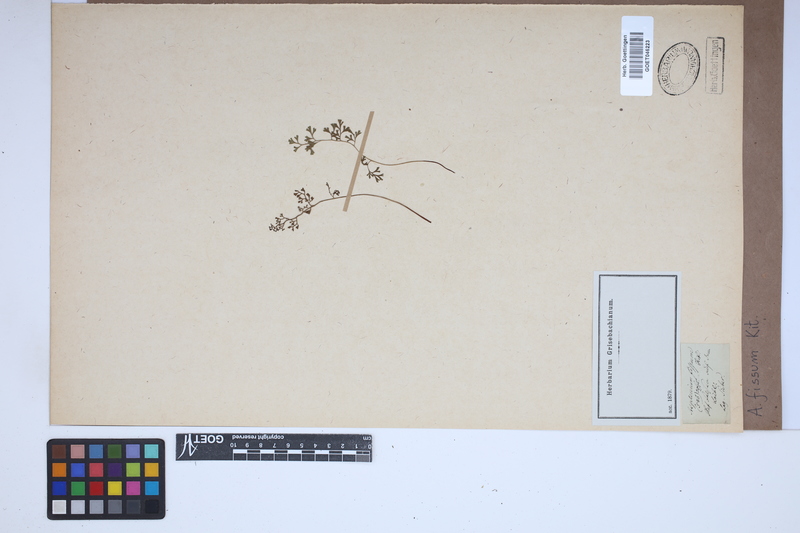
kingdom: Plantae
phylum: Tracheophyta
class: Polypodiopsida
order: Polypodiales
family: Aspleniaceae
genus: Asplenium
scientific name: Asplenium fissum
